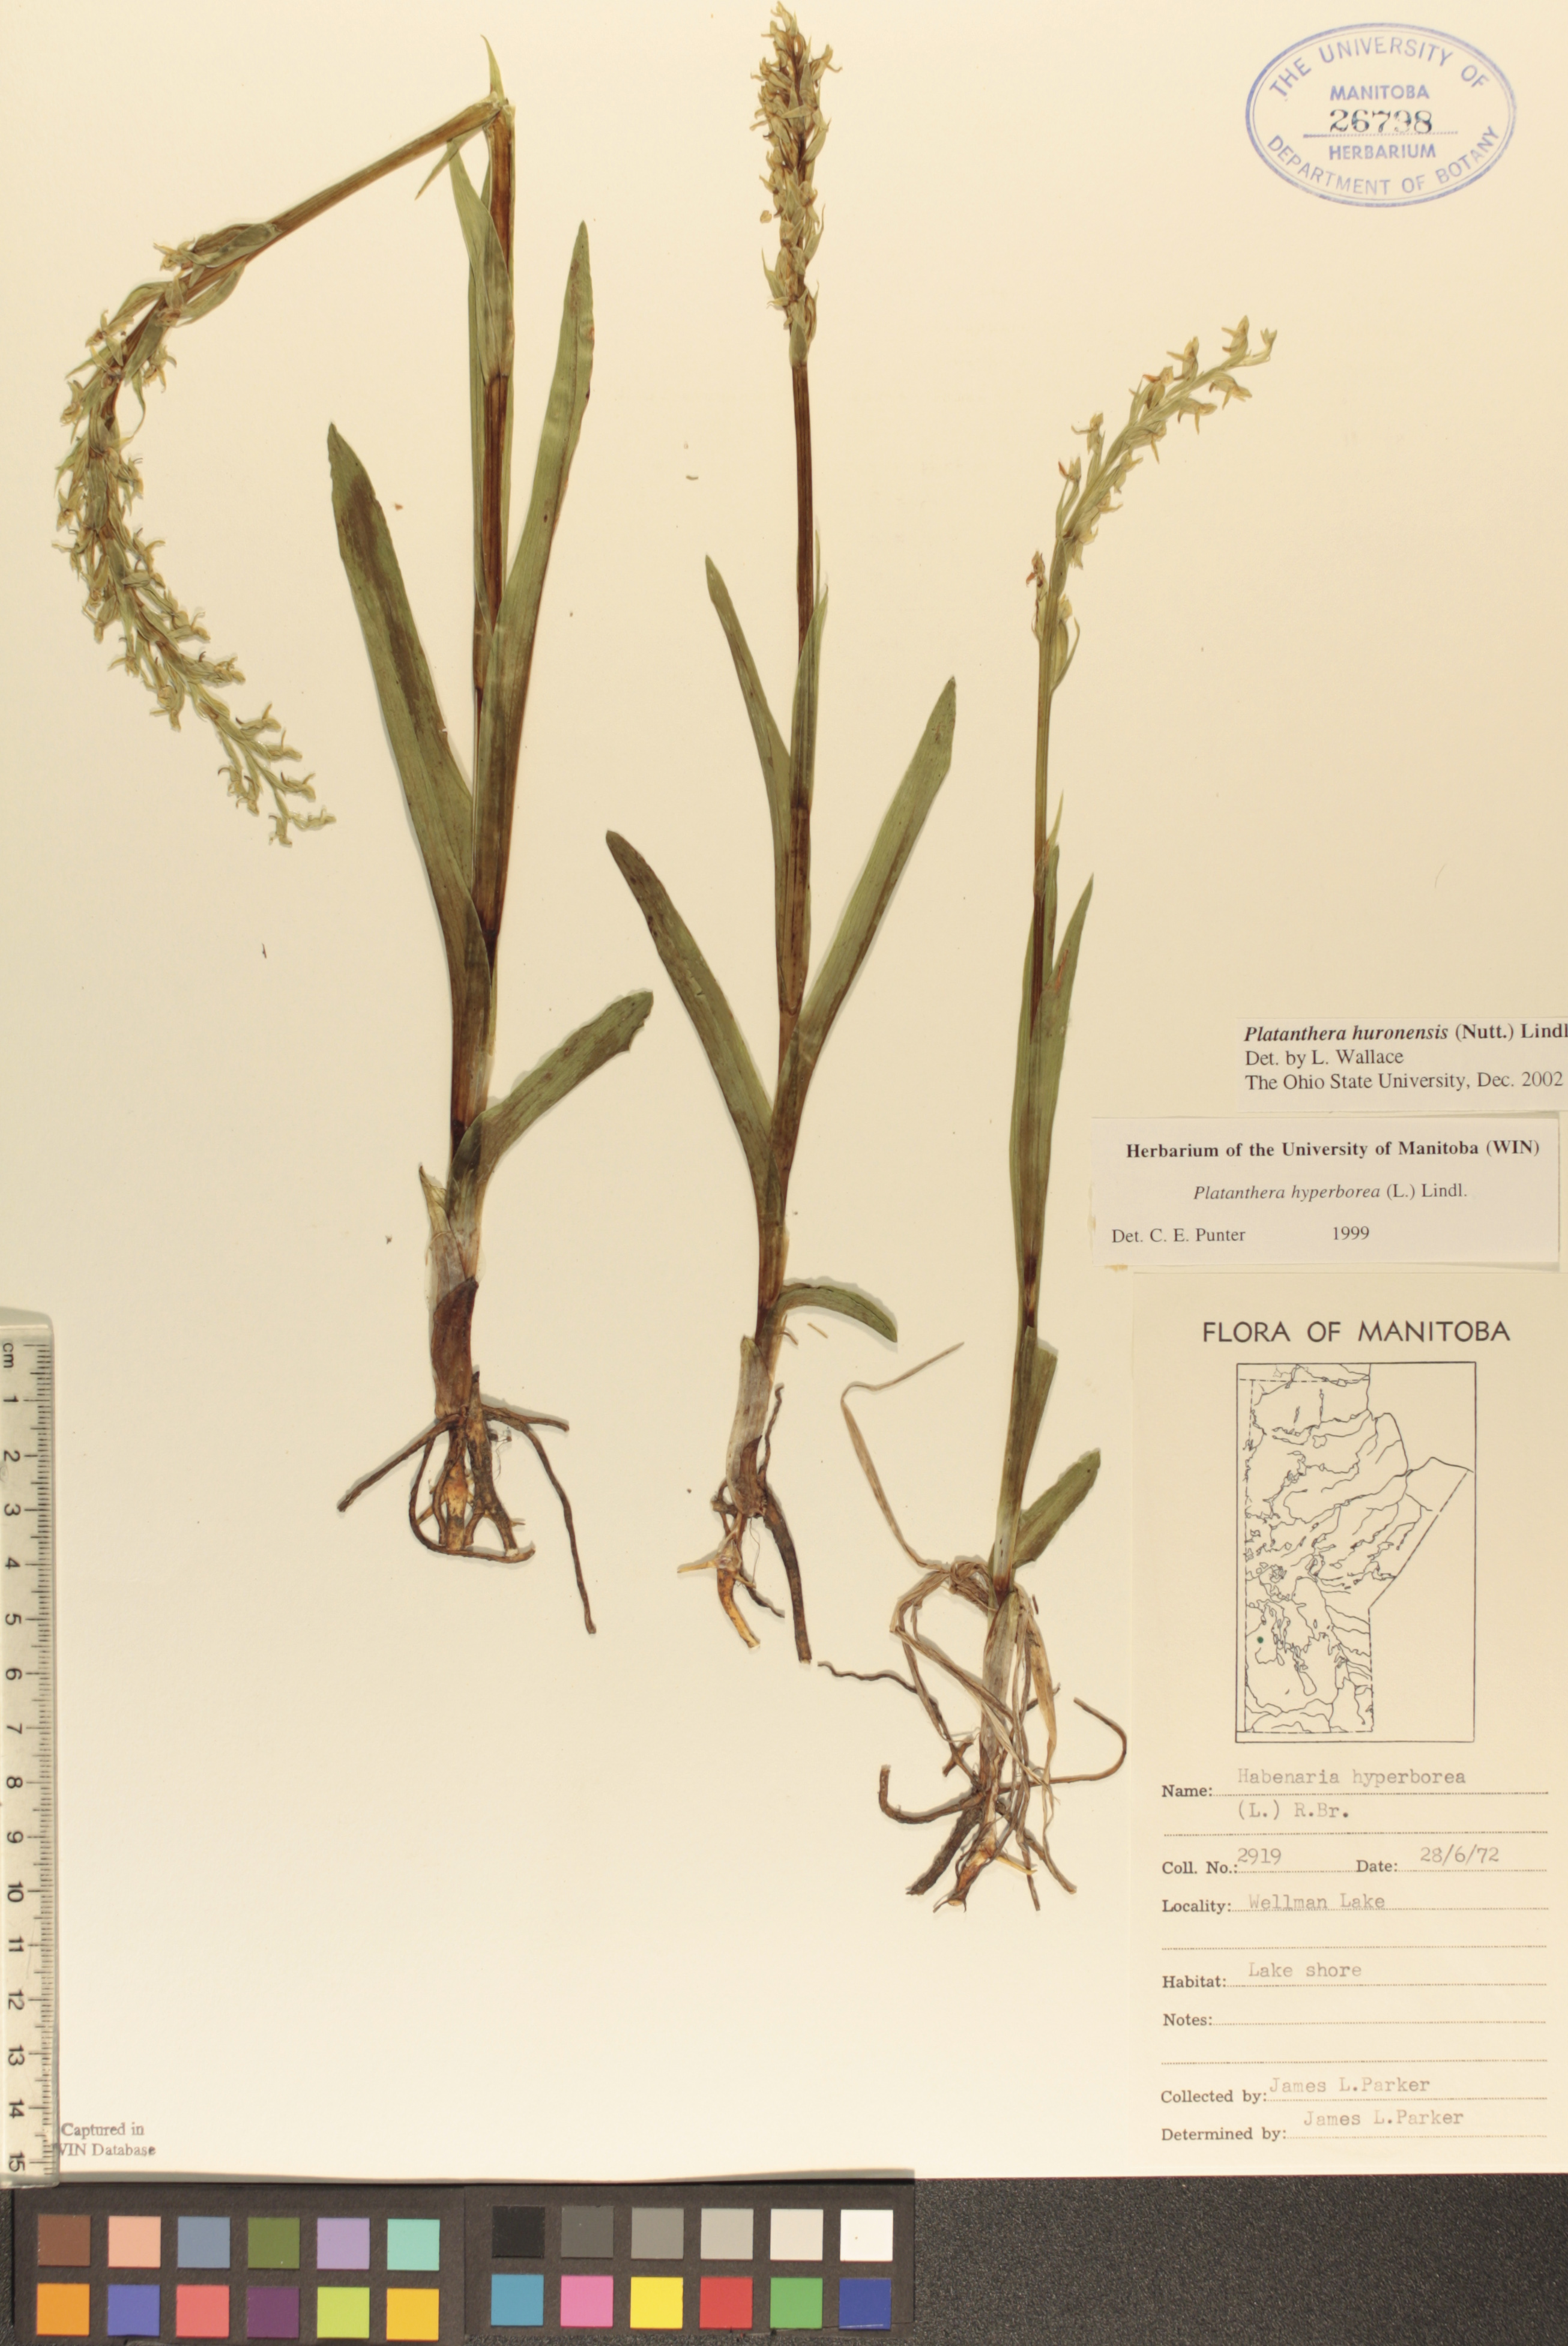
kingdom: Plantae
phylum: Tracheophyta
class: Liliopsida
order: Asparagales
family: Orchidaceae
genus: Platanthera
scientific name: Platanthera huronensis
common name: Fragrant green orchid
